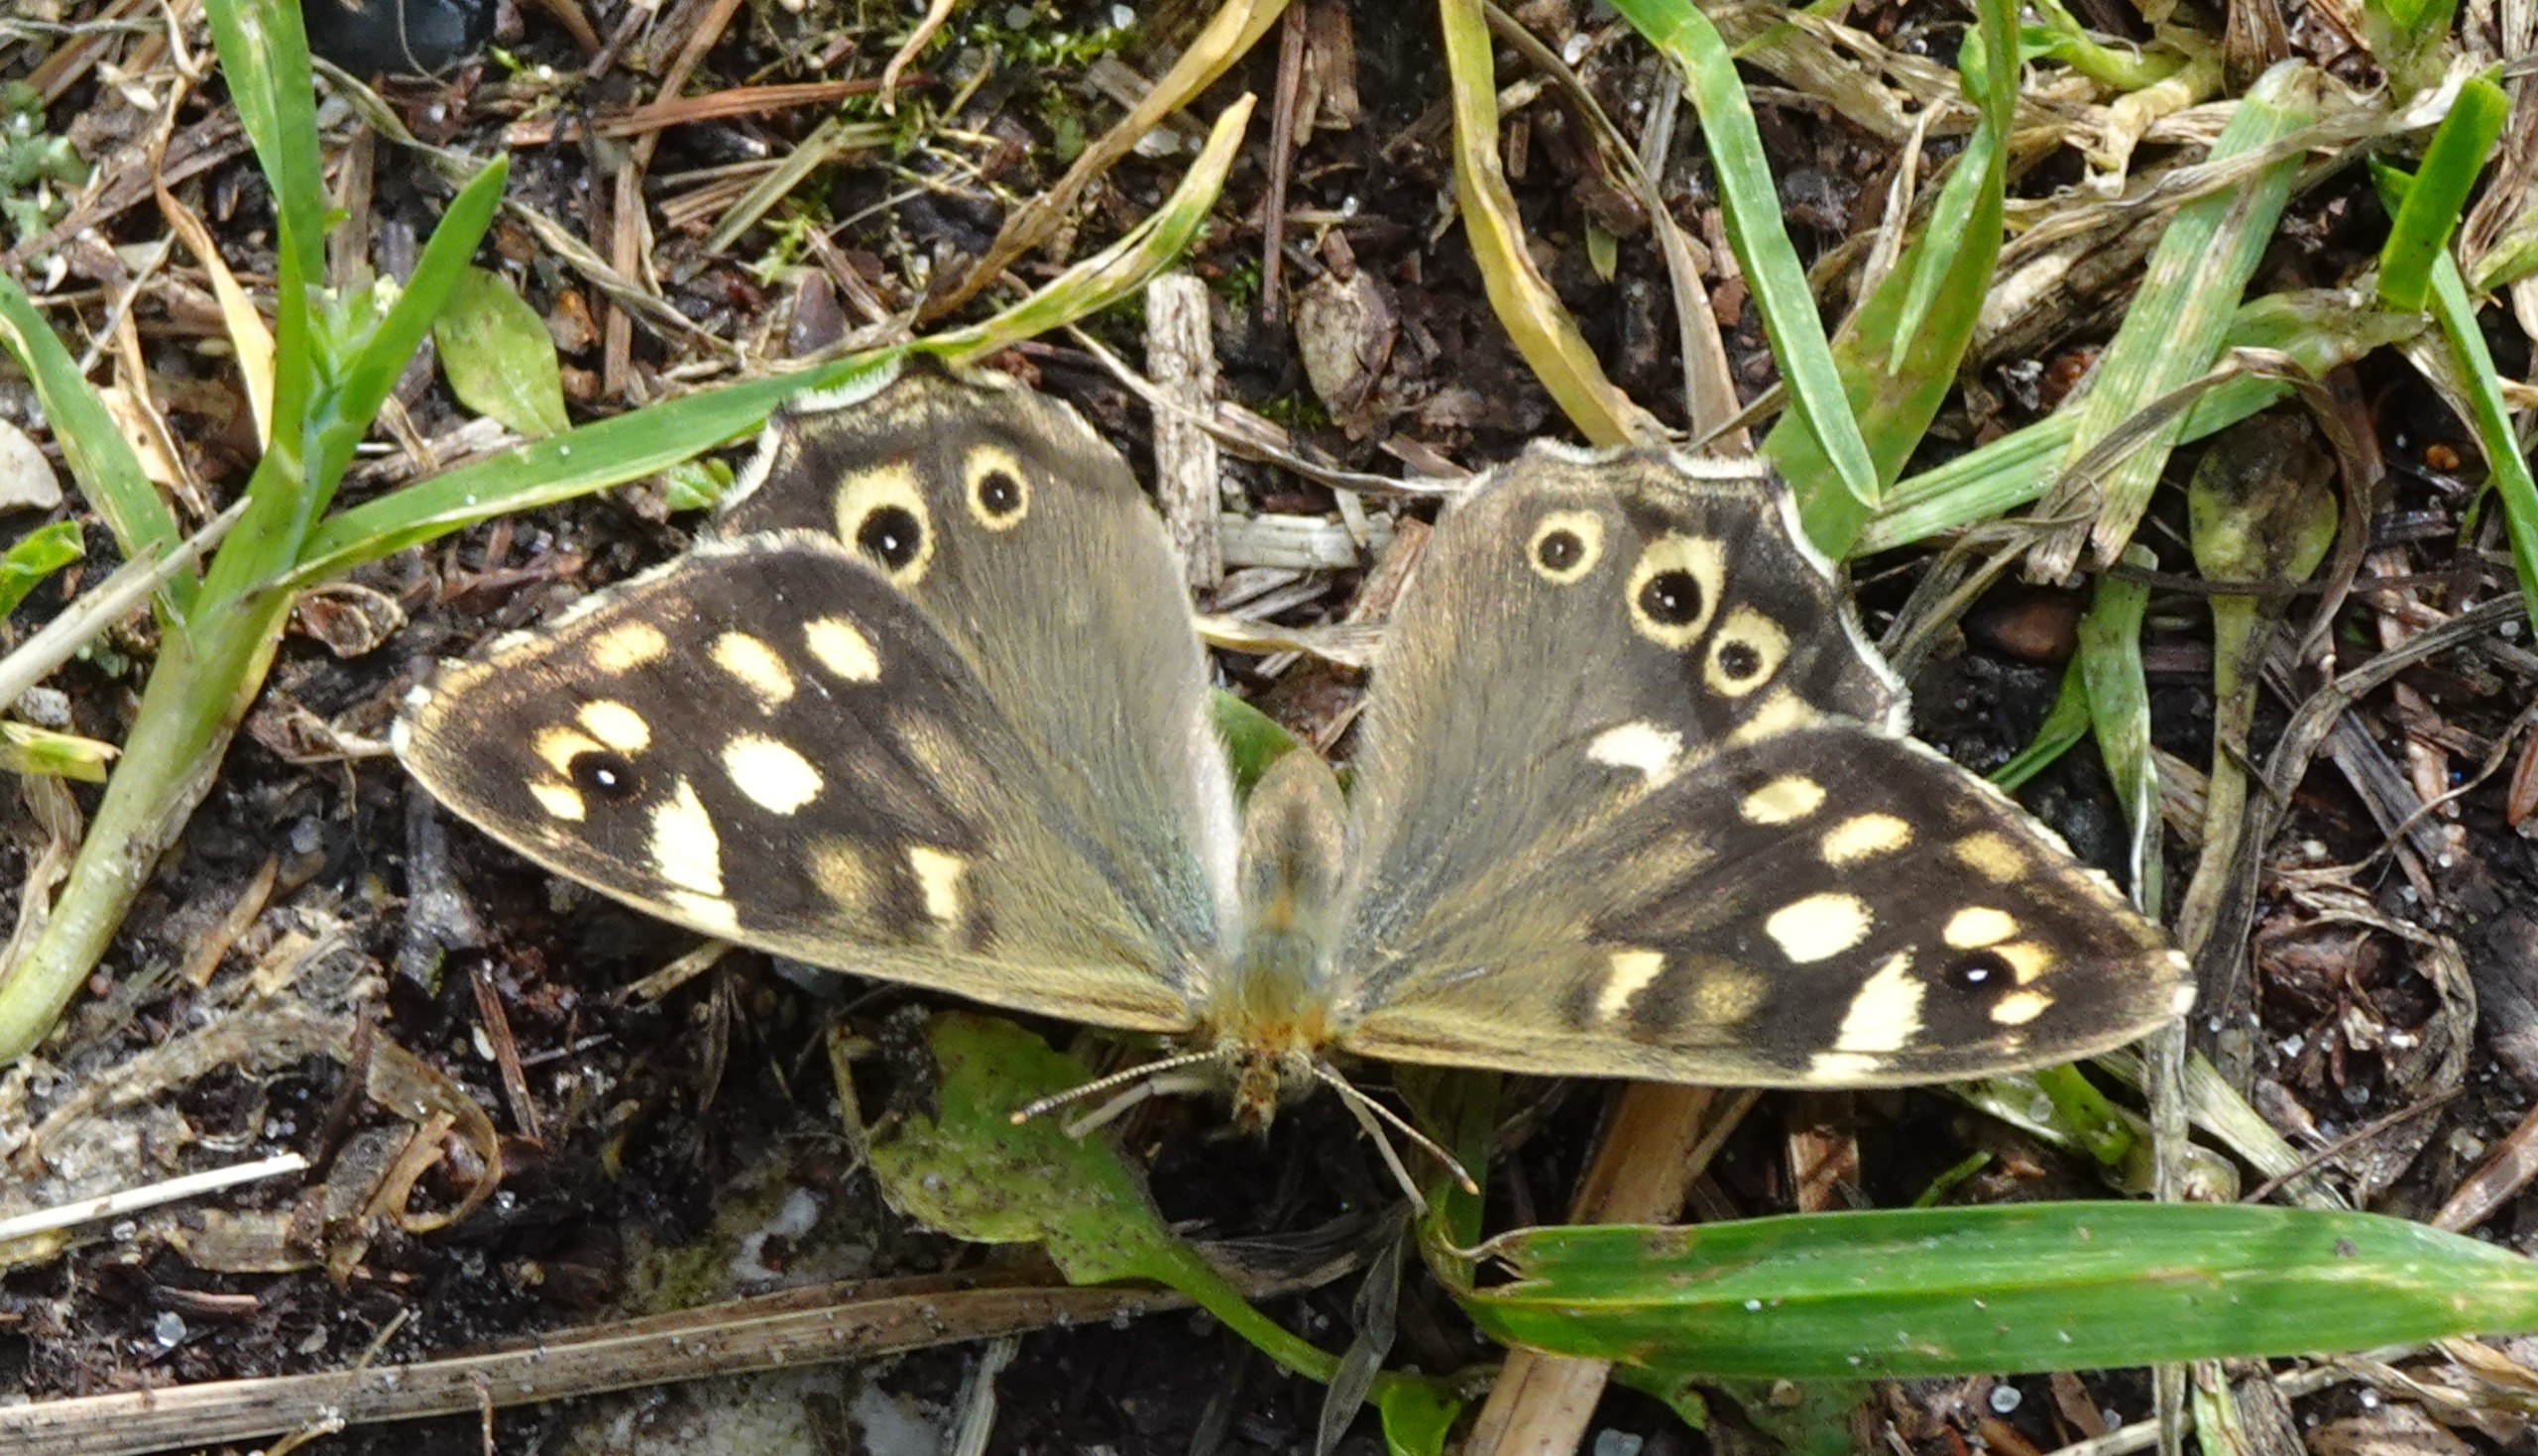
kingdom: Animalia
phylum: Arthropoda
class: Insecta
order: Lepidoptera
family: Nymphalidae
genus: Pararge
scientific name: Pararge aegeria
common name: Skovrandøje
